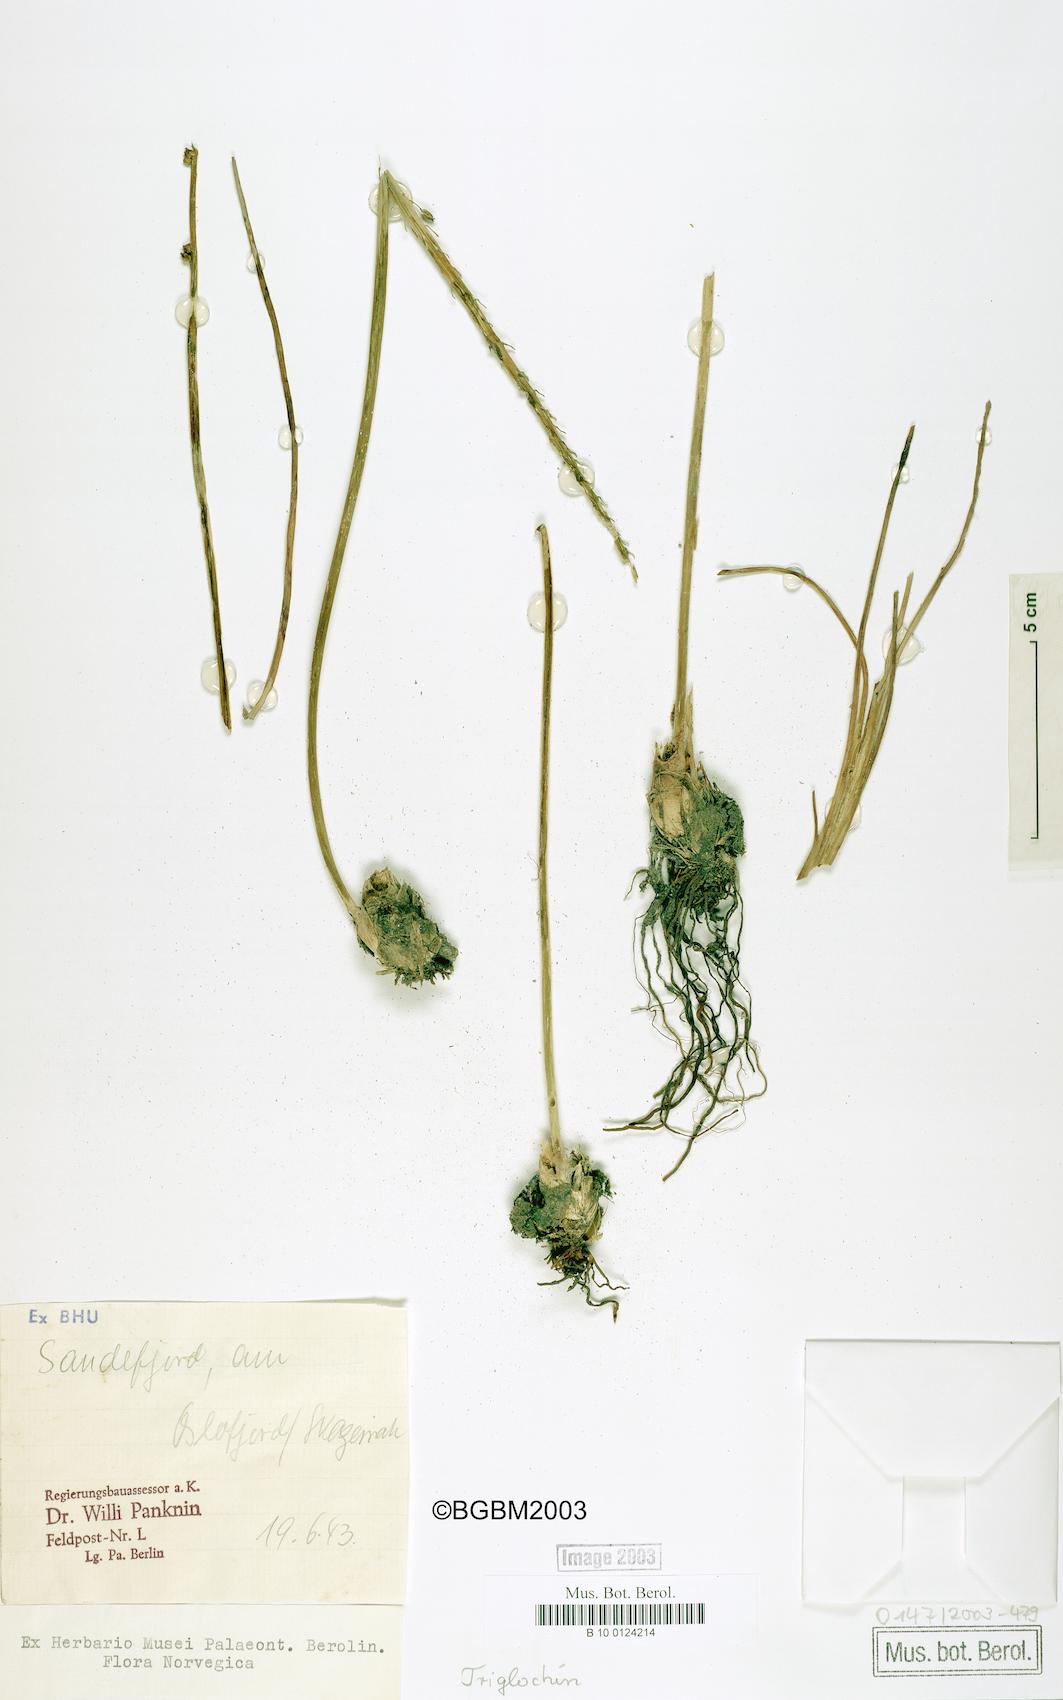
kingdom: Plantae
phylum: Tracheophyta
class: Liliopsida
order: Alismatales
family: Juncaginaceae
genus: Triglochin
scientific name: Triglochin maritima
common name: Sea arrowgrass
